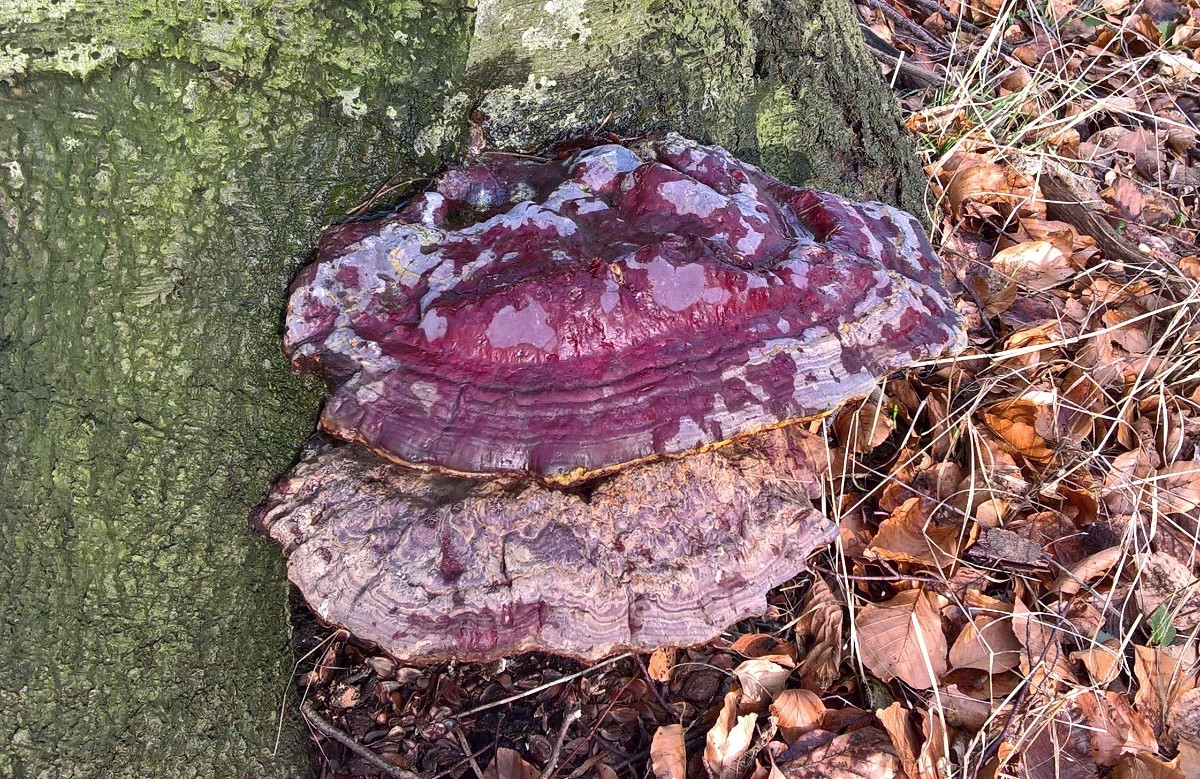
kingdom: Fungi
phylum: Basidiomycota
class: Agaricomycetes
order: Polyporales
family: Polyporaceae
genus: Ganoderma
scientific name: Ganoderma resinaceum
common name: gyldenbrun lakporesvamp
